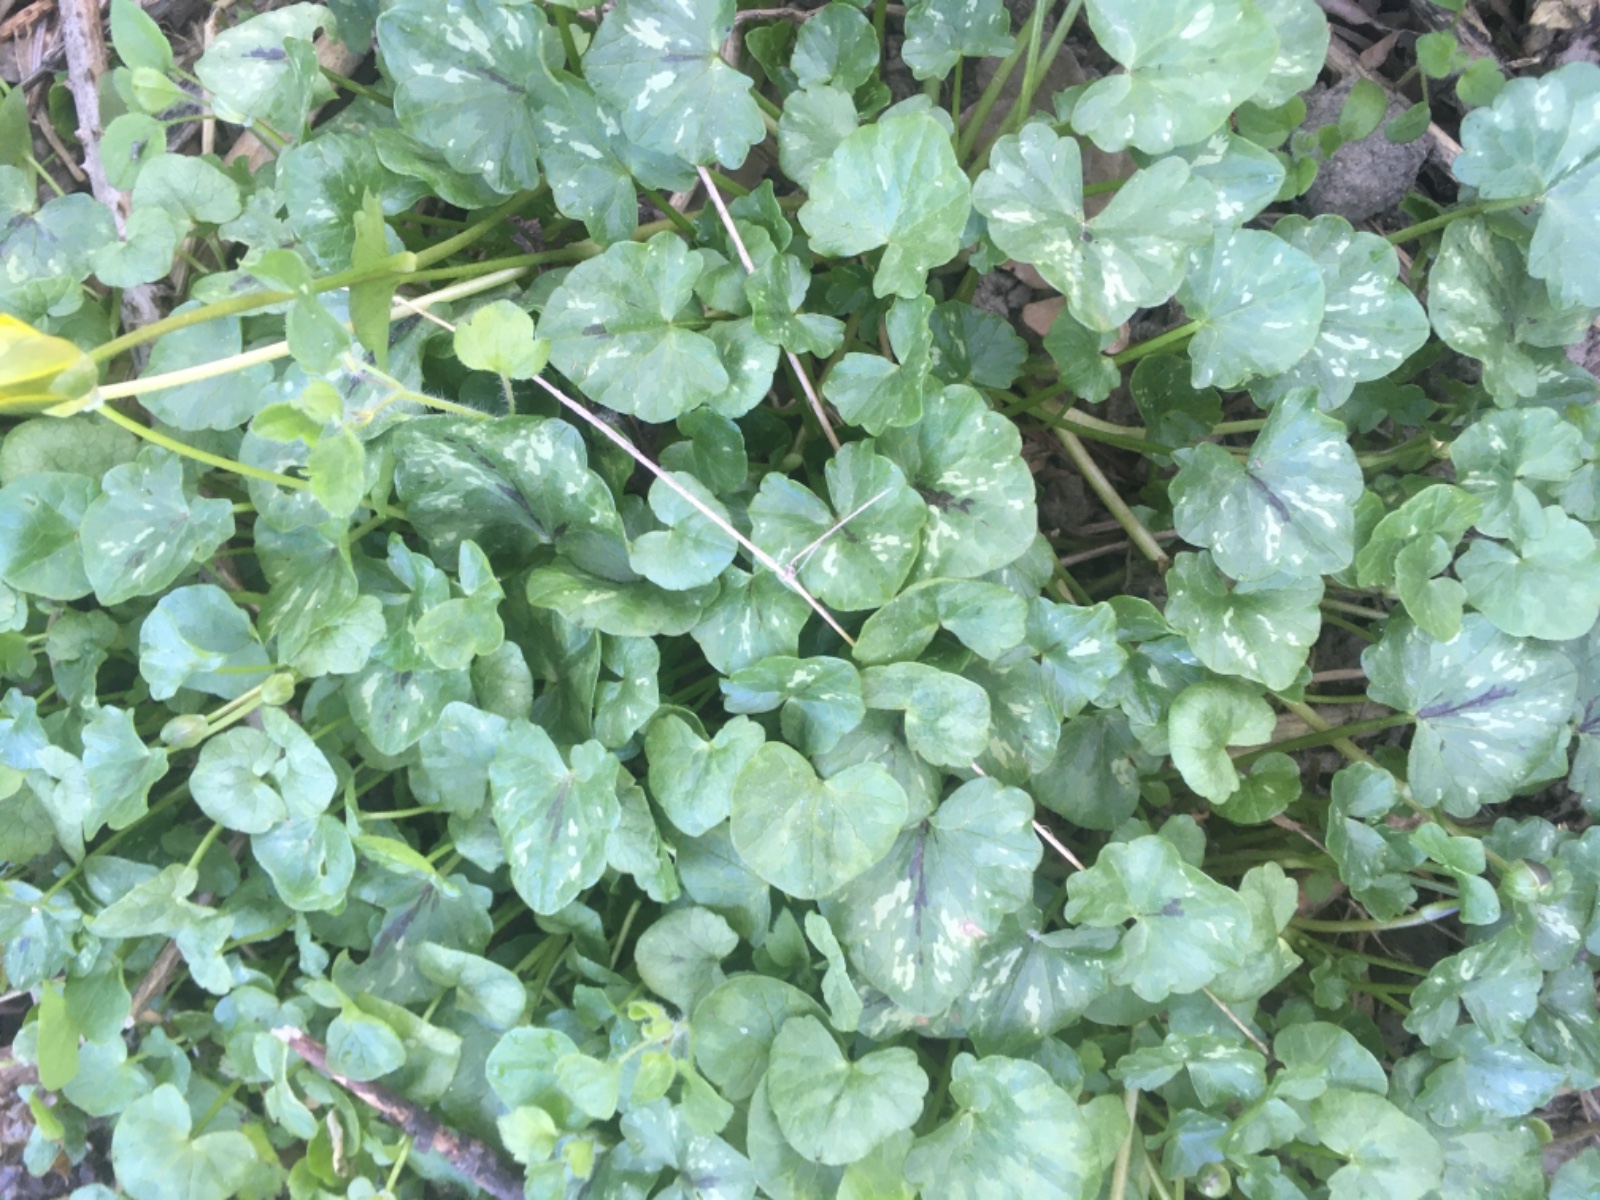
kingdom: Fungi
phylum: Basidiomycota
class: Exobasidiomycetes
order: Entylomatales
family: Entylomataceae
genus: Entyloma
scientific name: Entyloma ficariae
